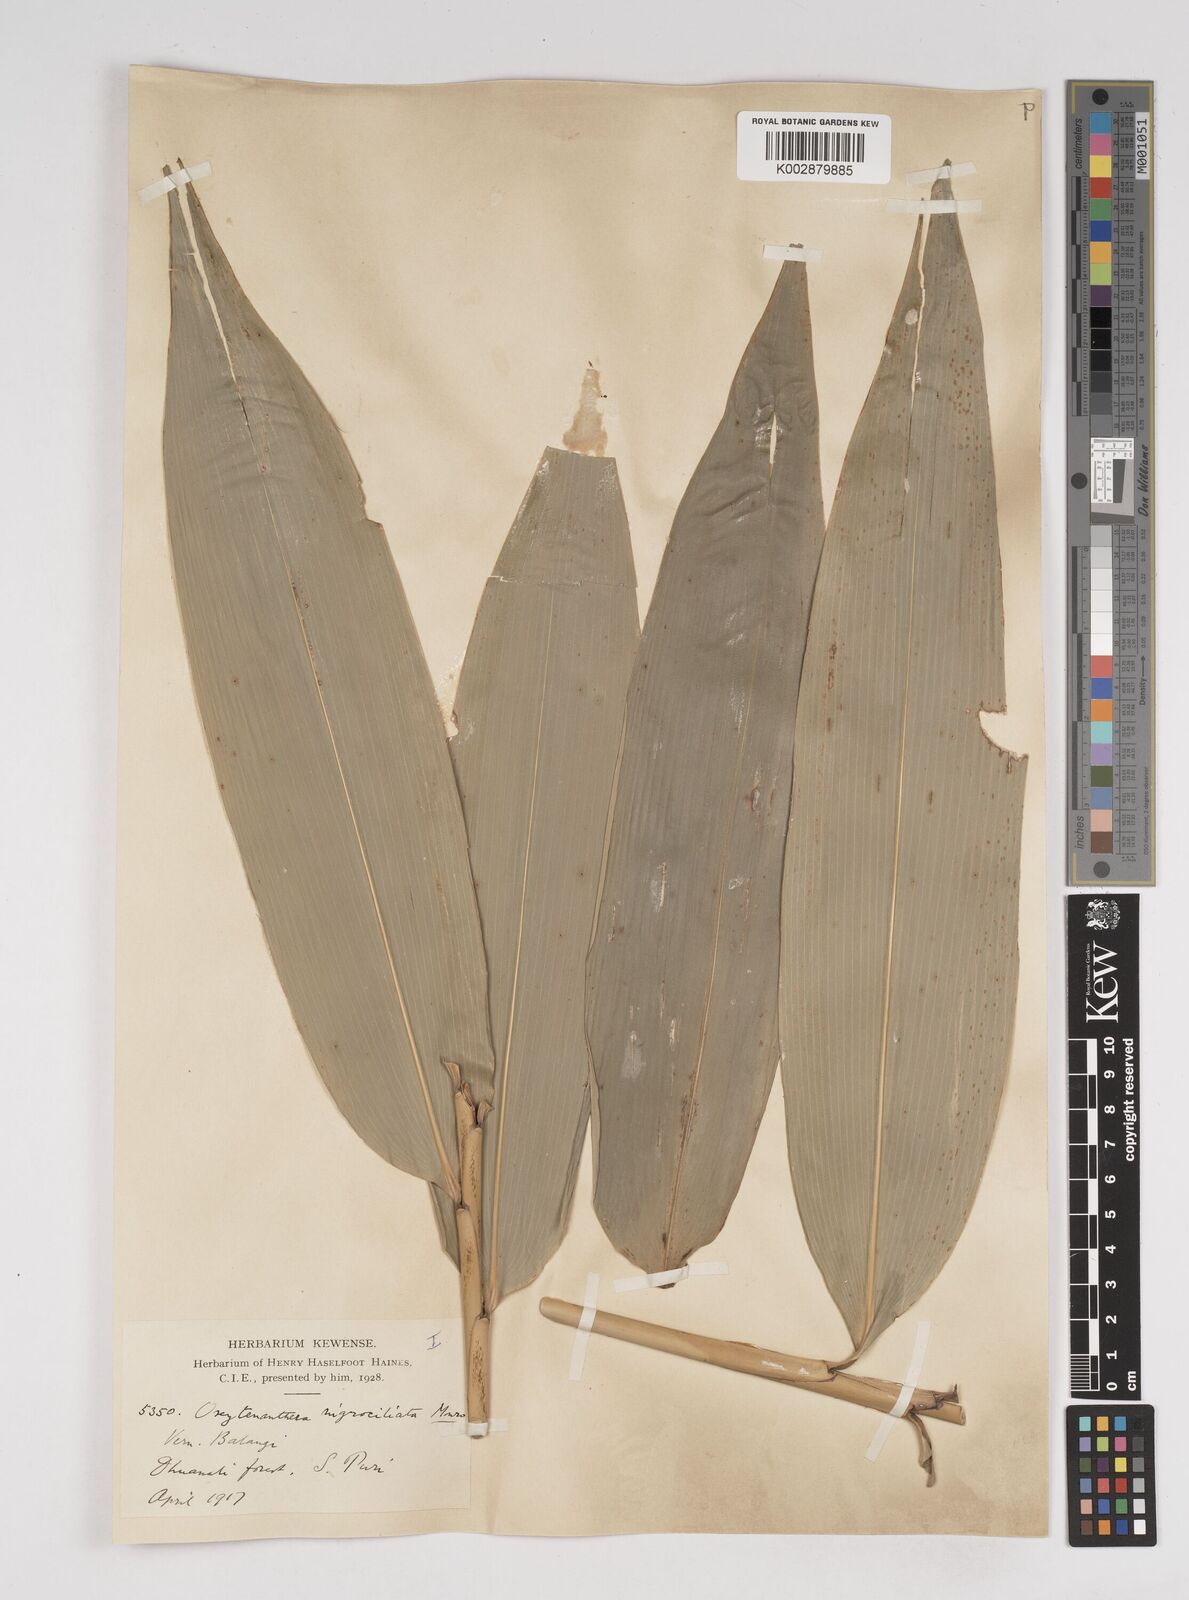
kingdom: Plantae
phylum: Tracheophyta
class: Liliopsida
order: Poales
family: Poaceae
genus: Gigantochloa
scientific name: Gigantochloa
